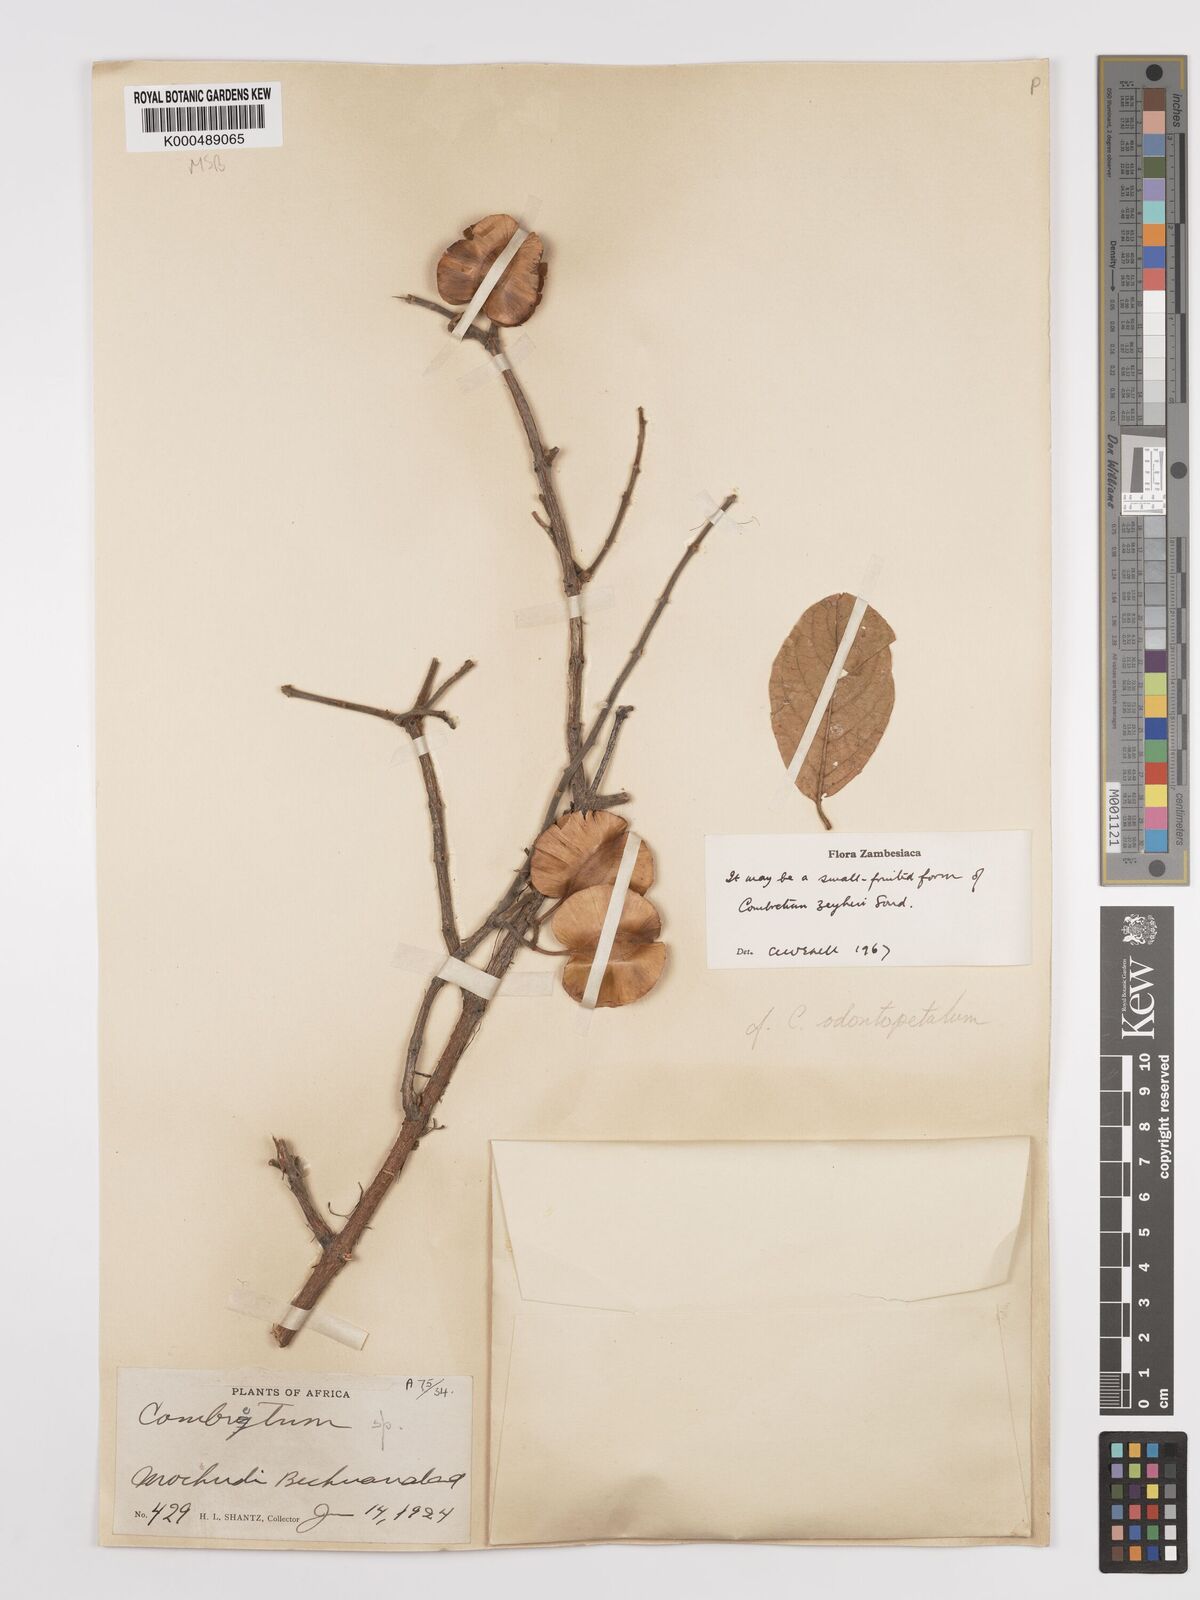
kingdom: Plantae
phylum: Tracheophyta
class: Magnoliopsida
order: Myrtales
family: Combretaceae
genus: Combretum
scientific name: Combretum zeyheri
